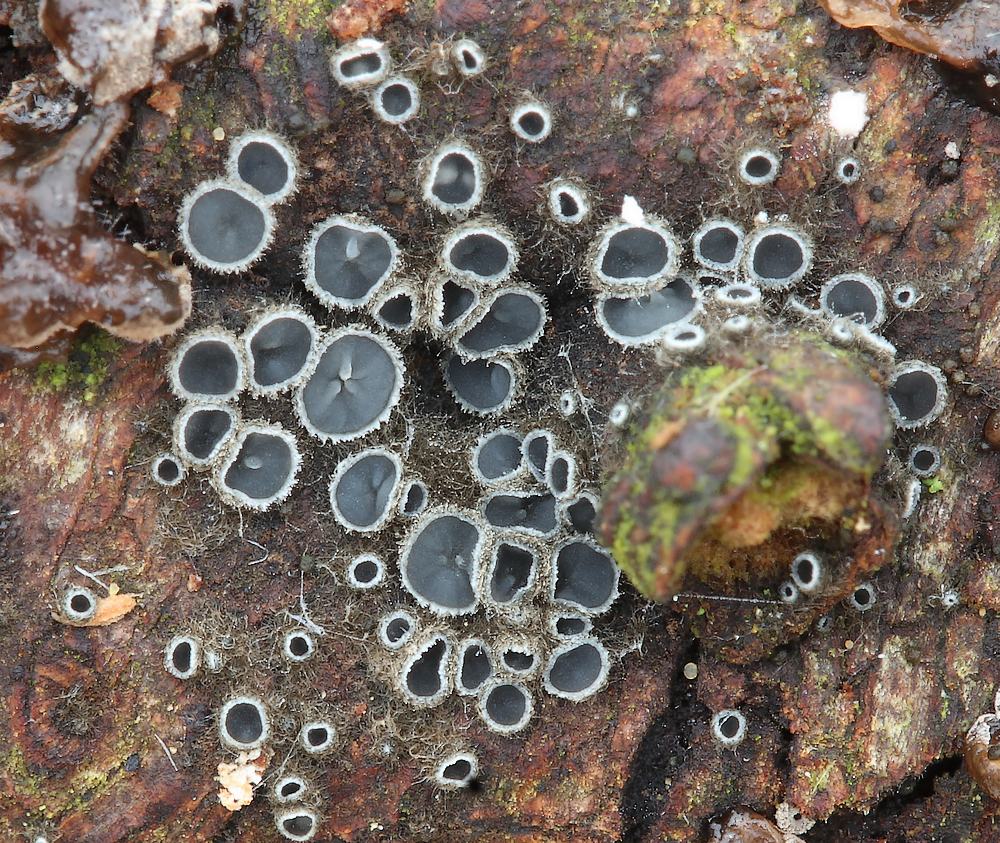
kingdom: Fungi
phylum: Ascomycota
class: Leotiomycetes
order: Helotiales
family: Mollisiaceae
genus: Mollisia
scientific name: Mollisia prunicola
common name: slåen-gråskive
